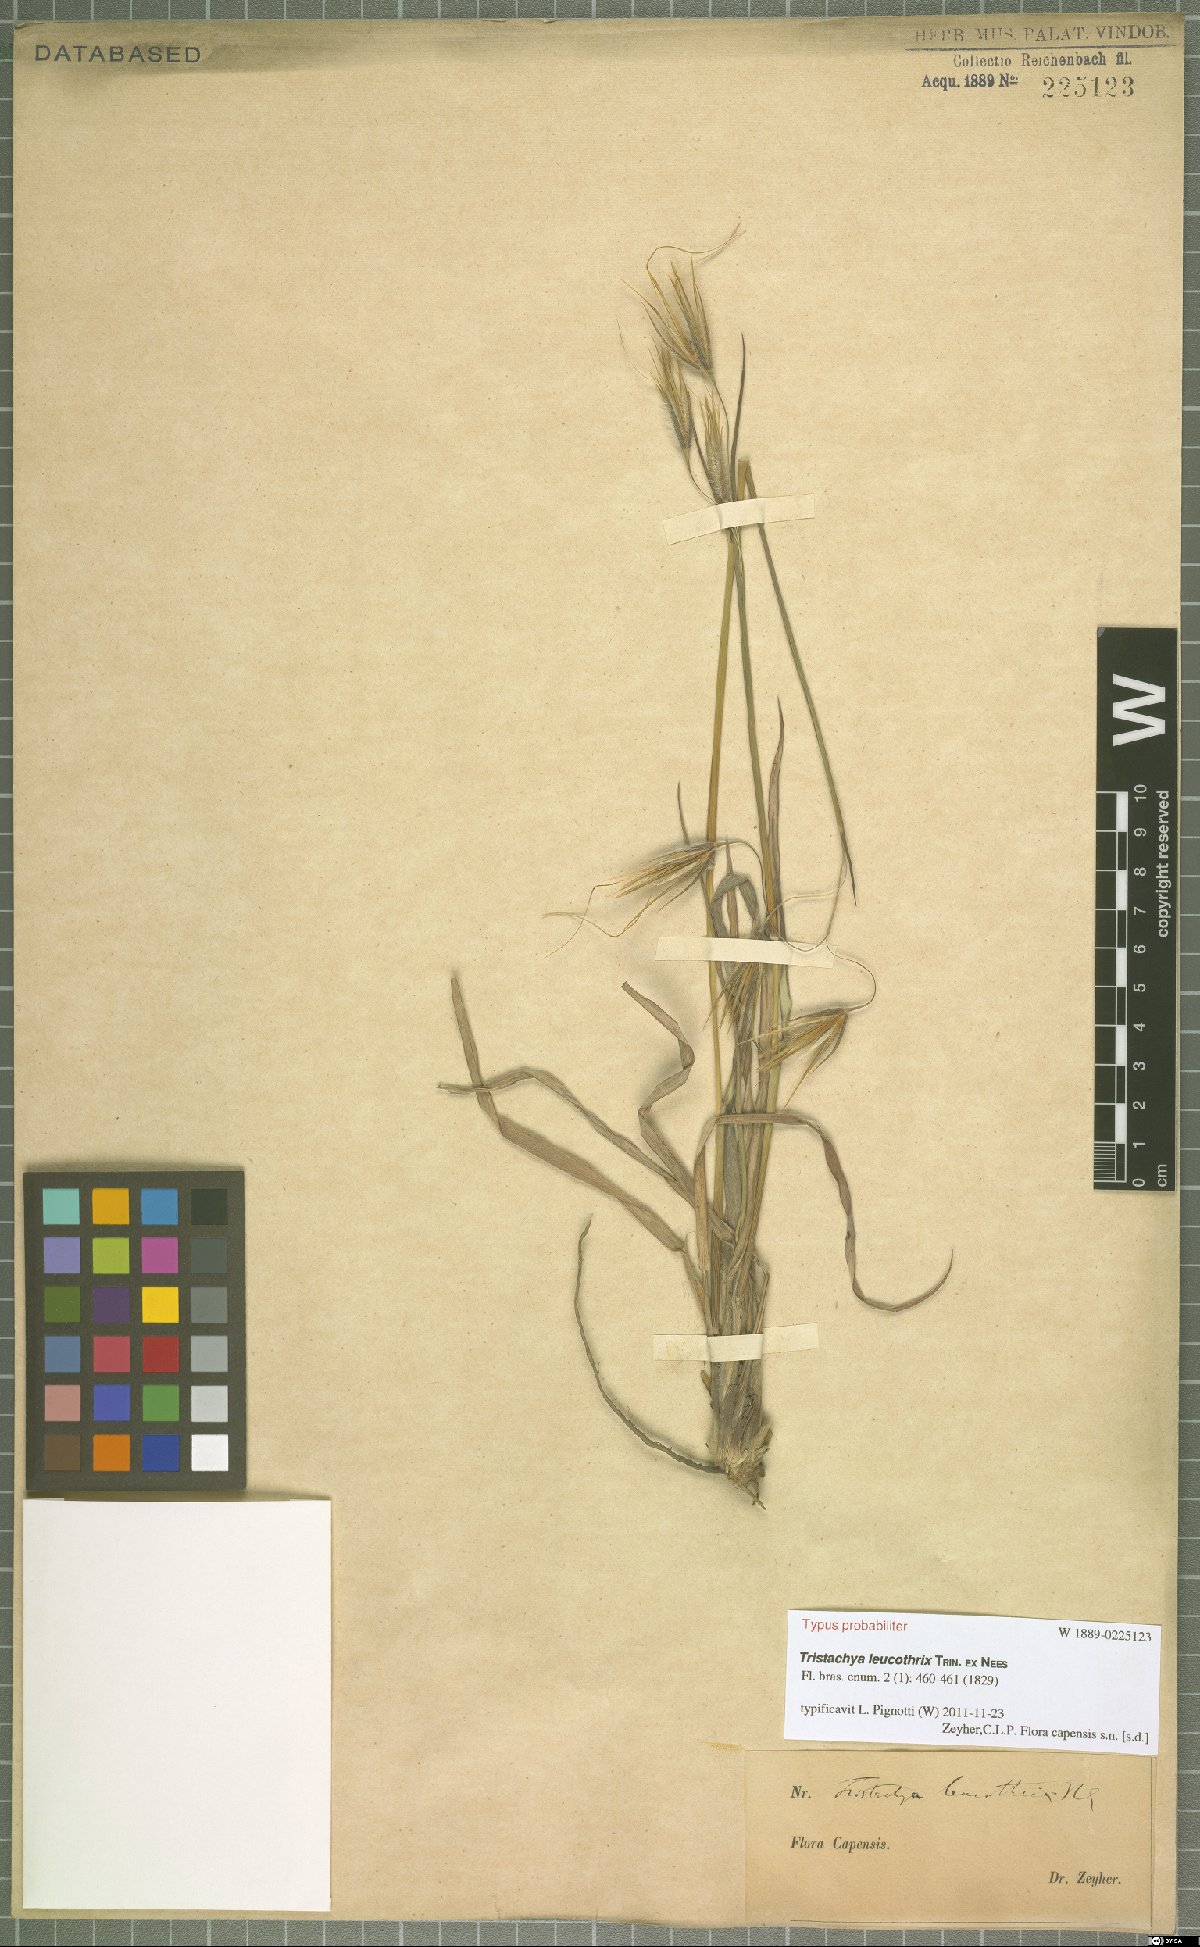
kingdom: Plantae
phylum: Tracheophyta
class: Liliopsida
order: Poales
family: Poaceae
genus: Tristachya
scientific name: Tristachya leucothrix
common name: Trident grass
